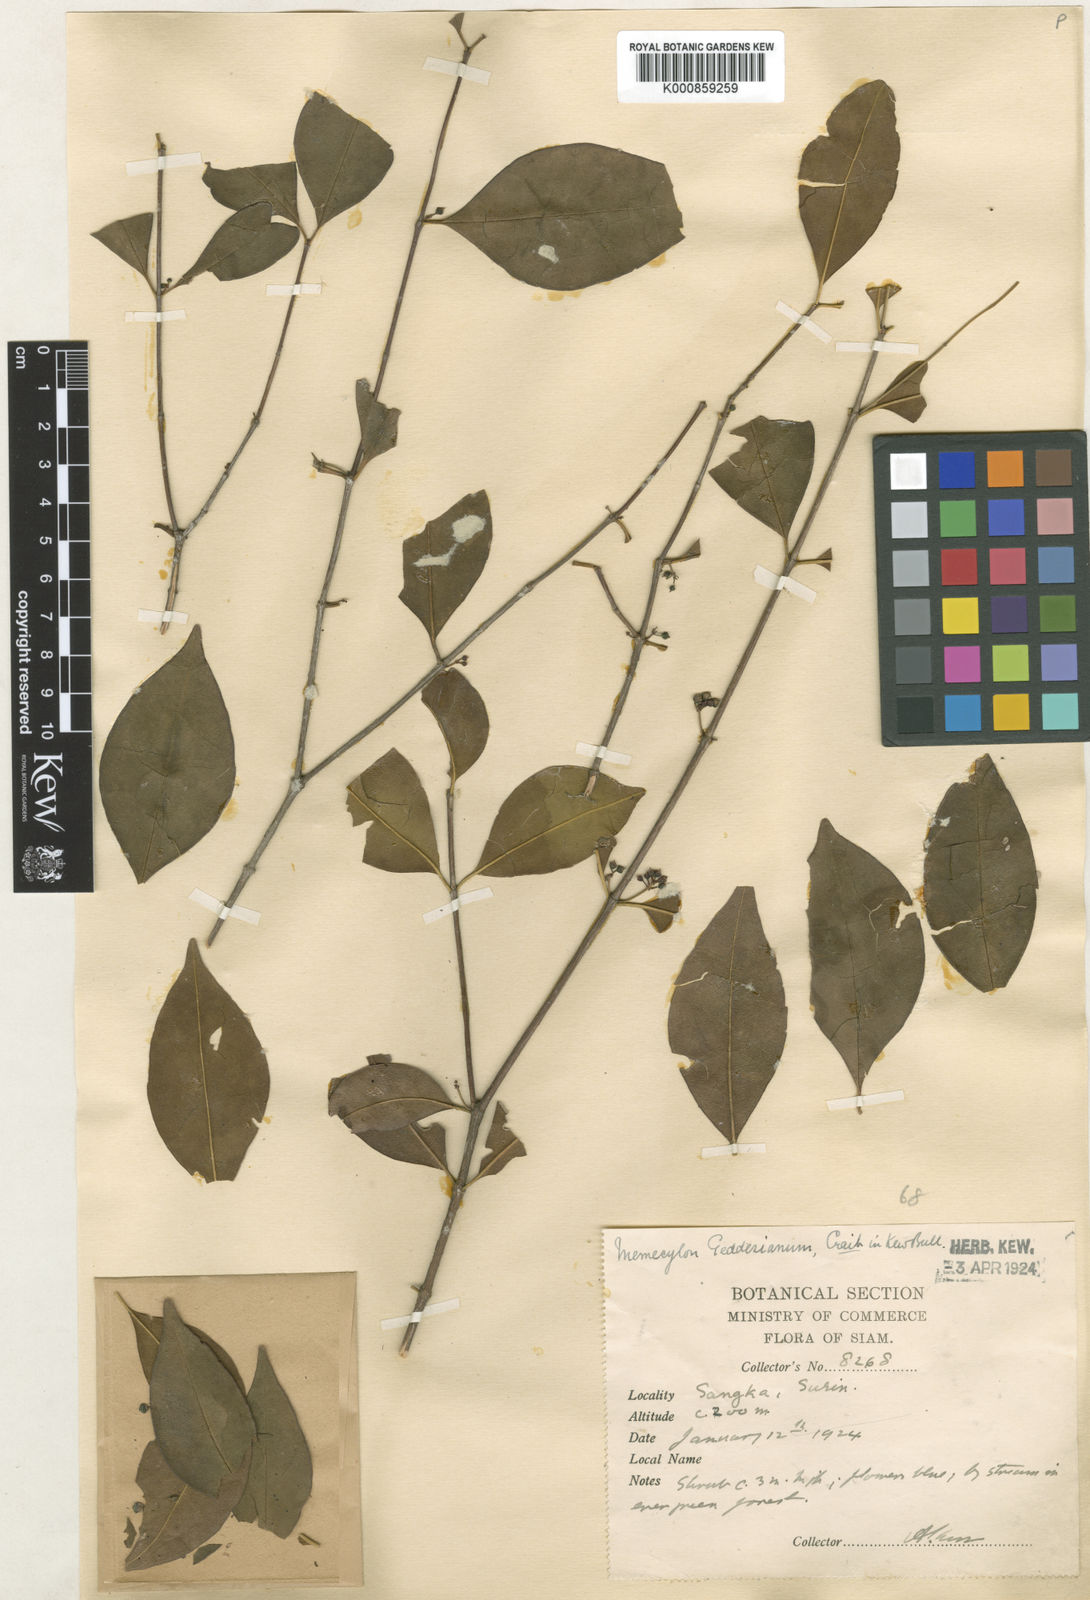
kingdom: Plantae
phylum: Tracheophyta
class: Magnoliopsida
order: Myrtales
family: Melastomataceae
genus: Memecylon
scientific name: Memecylon geddesianum
